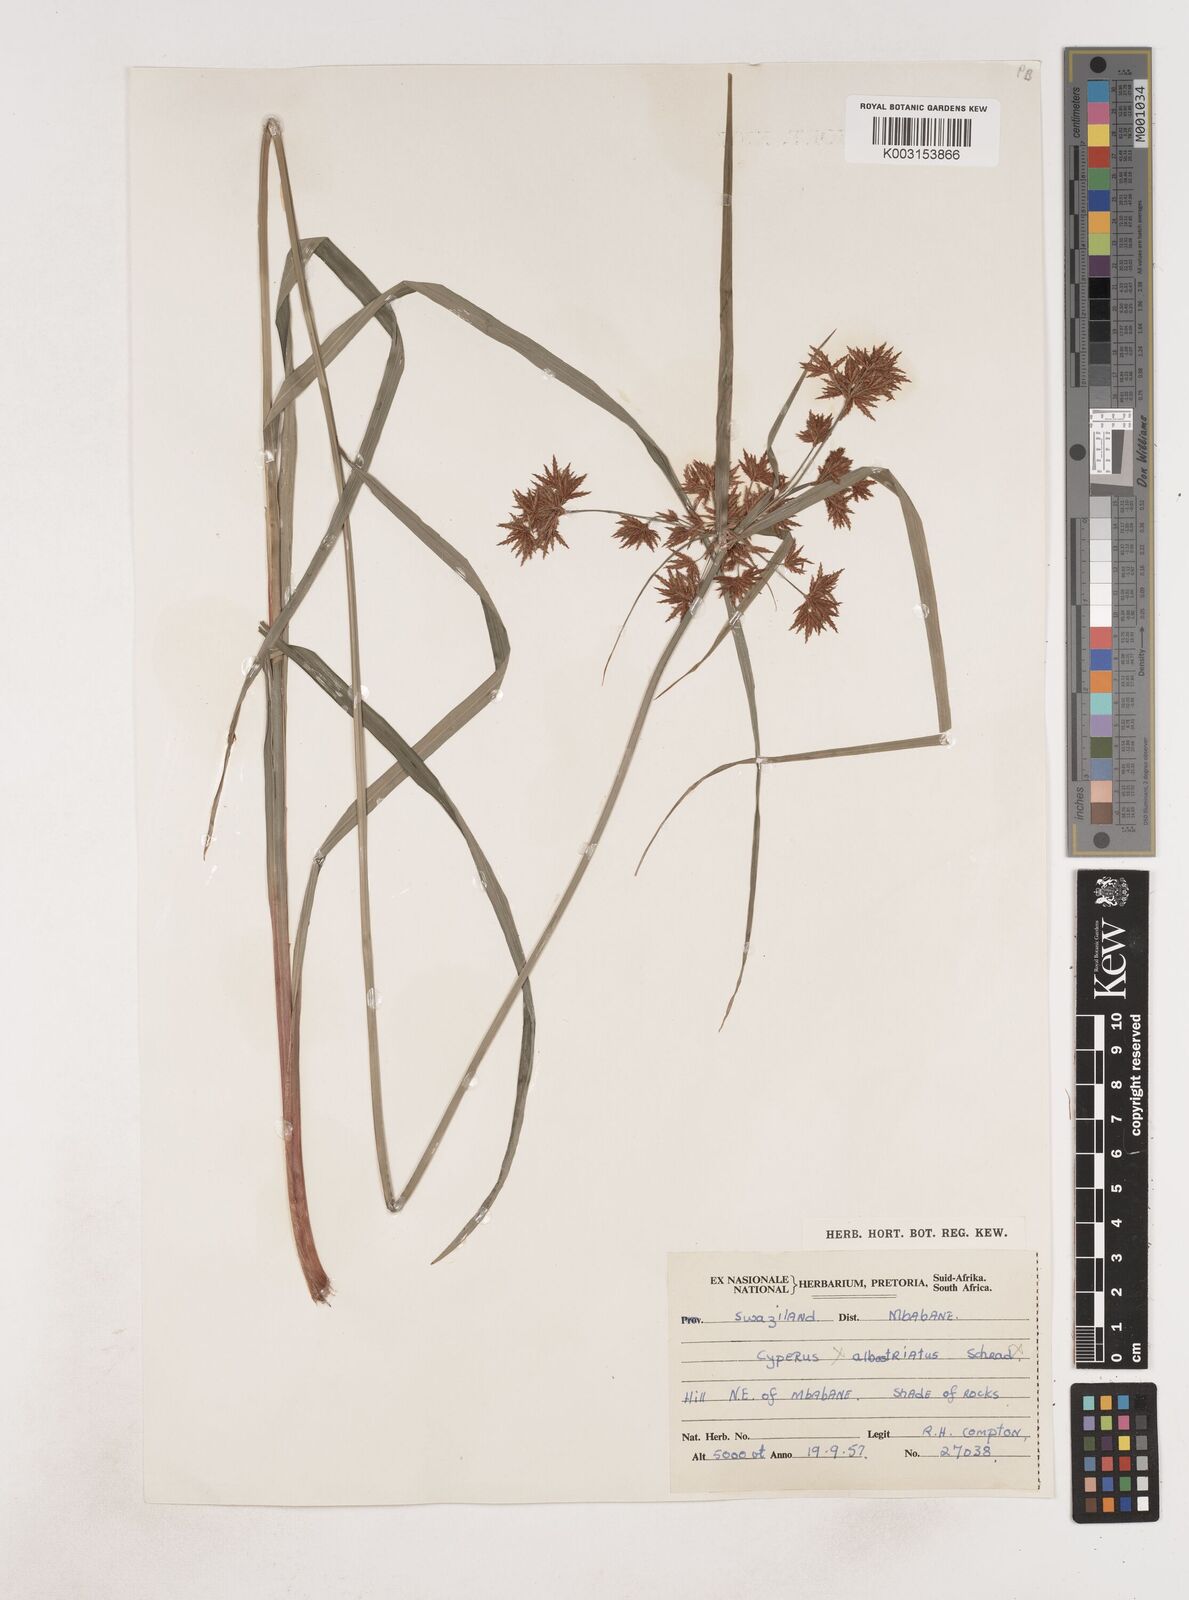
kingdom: Plantae
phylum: Tracheophyta
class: Liliopsida
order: Poales
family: Cyperaceae
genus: Cyperus
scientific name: Cyperus
